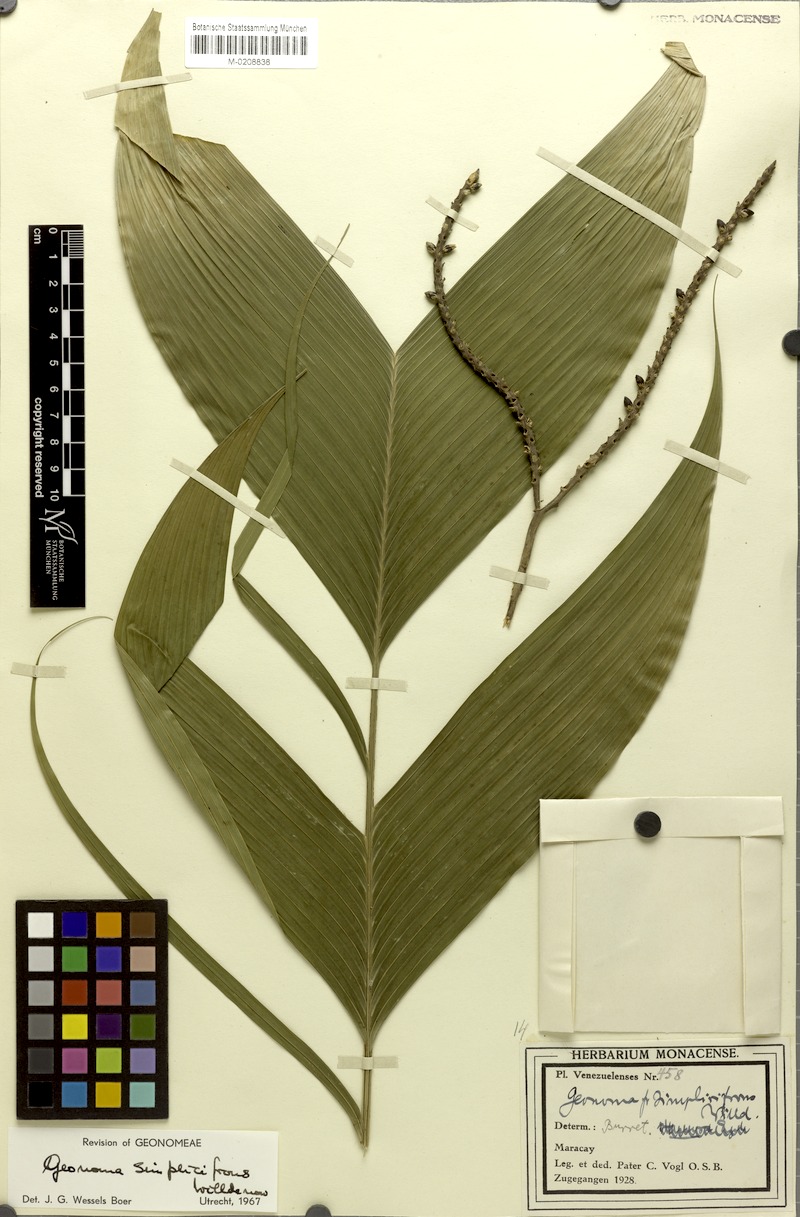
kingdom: Plantae
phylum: Tracheophyta
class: Liliopsida
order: Arecales
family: Arecaceae
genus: Geonoma
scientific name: Geonoma simplicifrons
